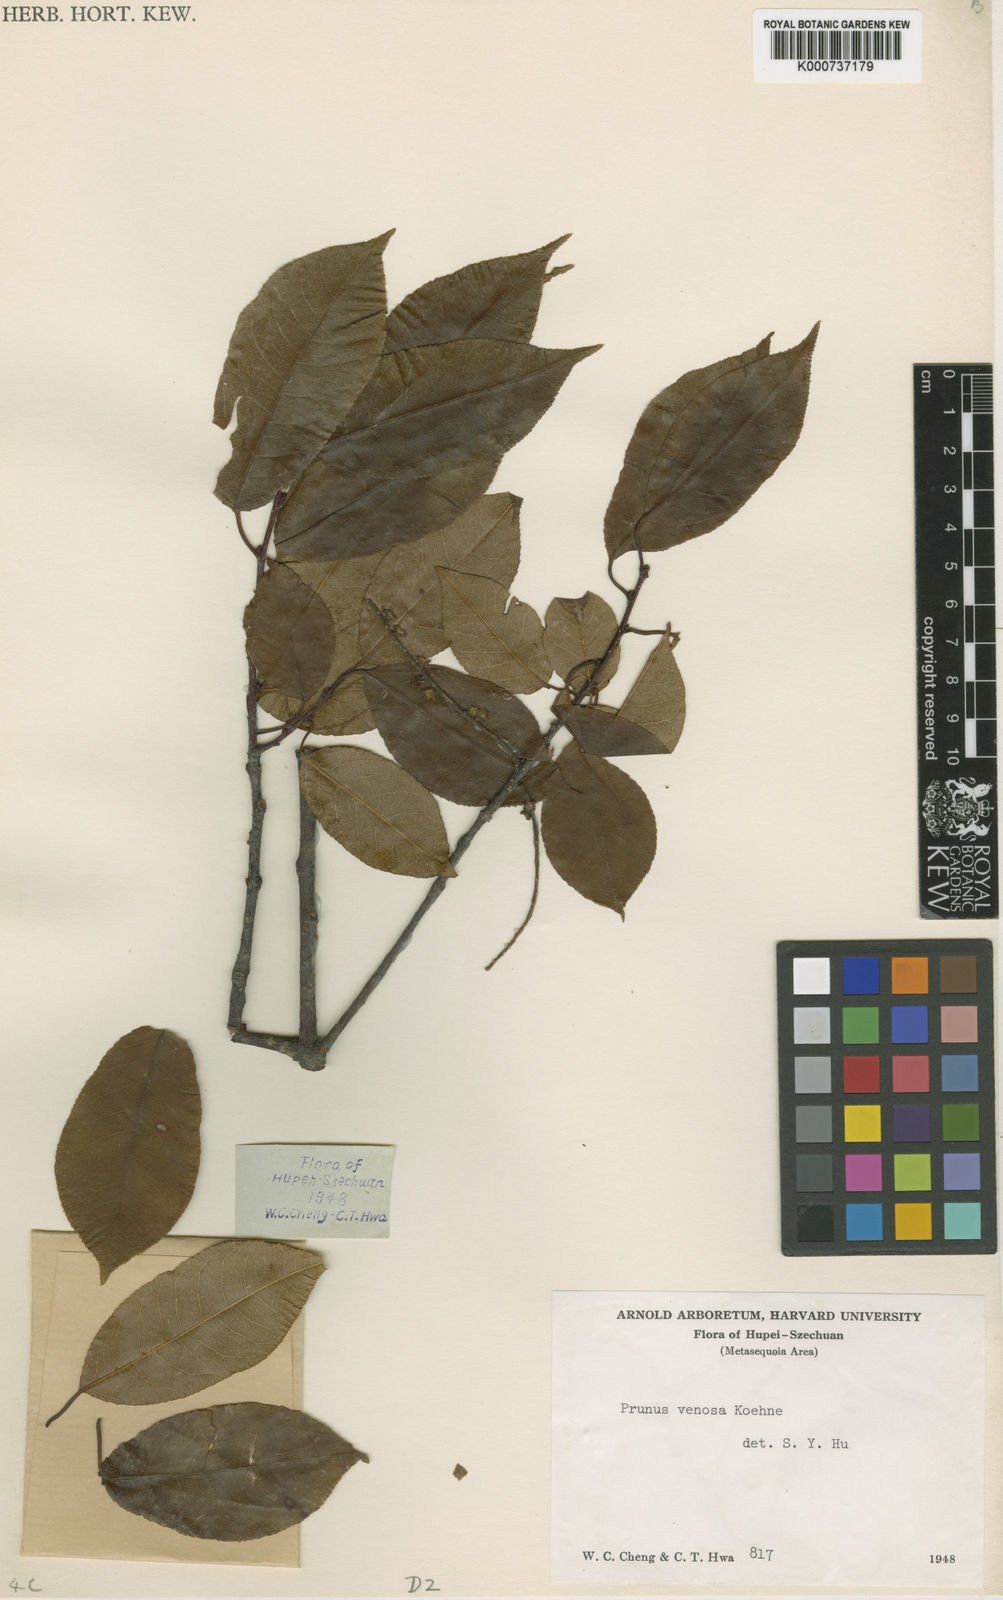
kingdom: Plantae
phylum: Tracheophyta
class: Magnoliopsida
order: Rosales
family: Rosaceae
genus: Prunus
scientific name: Prunus buergeriana
